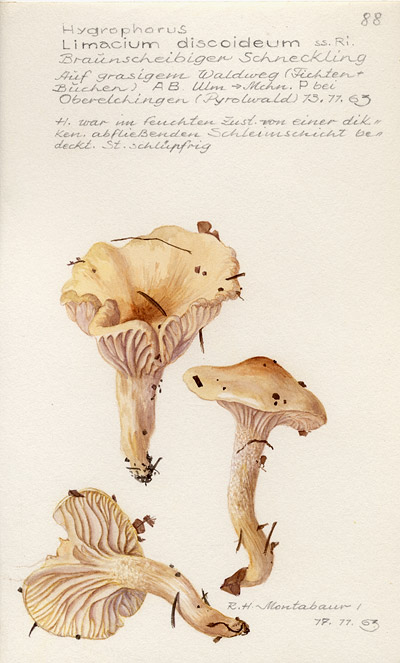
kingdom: Fungi
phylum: Basidiomycota
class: Agaricomycetes
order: Agaricales
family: Hygrophoraceae
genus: Hygrophorus
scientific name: Hygrophorus discoideus
